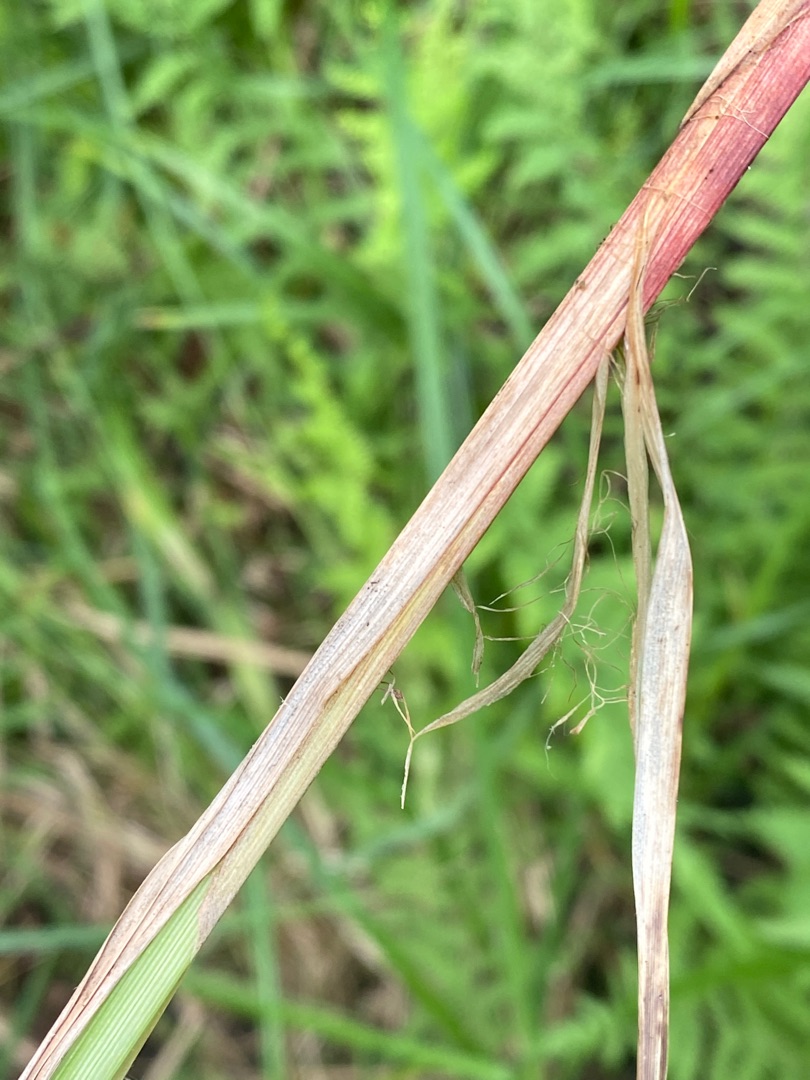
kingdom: Plantae
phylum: Tracheophyta
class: Liliopsida
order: Poales
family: Cyperaceae
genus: Carex
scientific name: Carex acutiformis
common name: Kær-star
